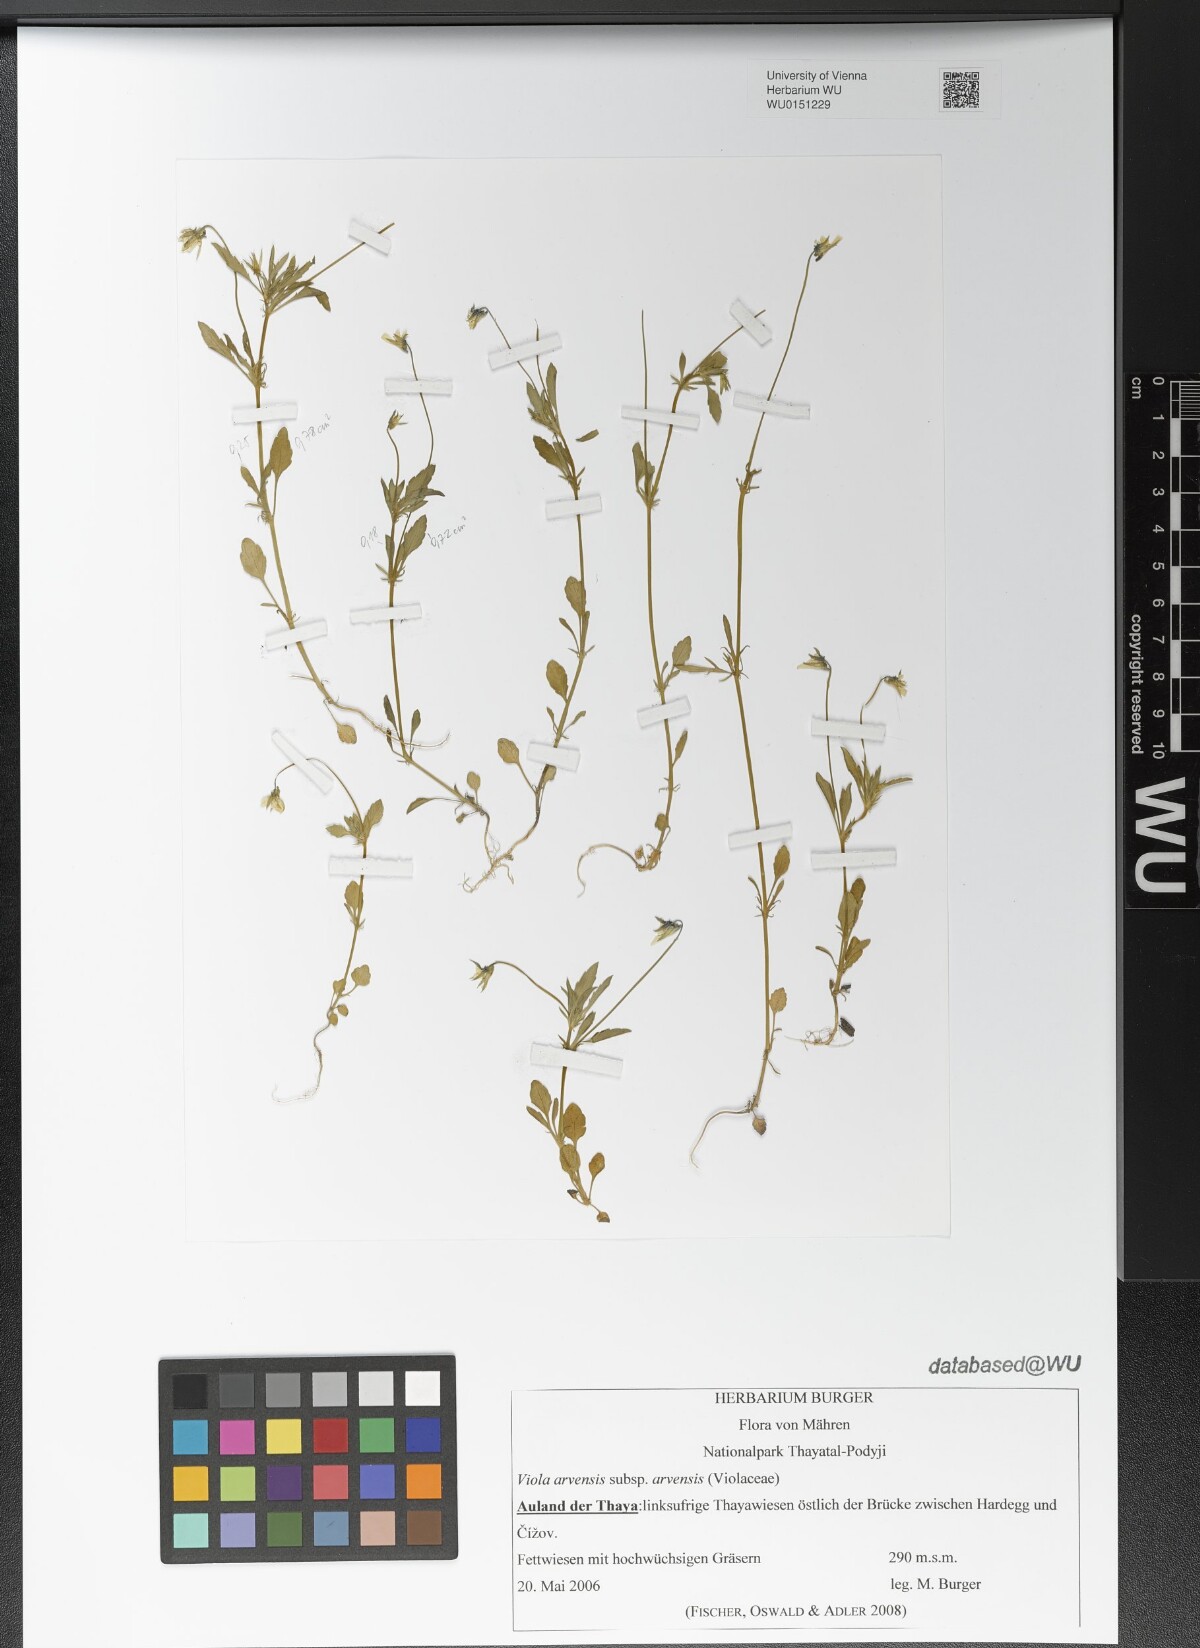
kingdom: Plantae
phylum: Tracheophyta
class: Magnoliopsida
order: Malpighiales
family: Violaceae
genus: Viola
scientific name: Viola arvensis
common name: Field pansy
